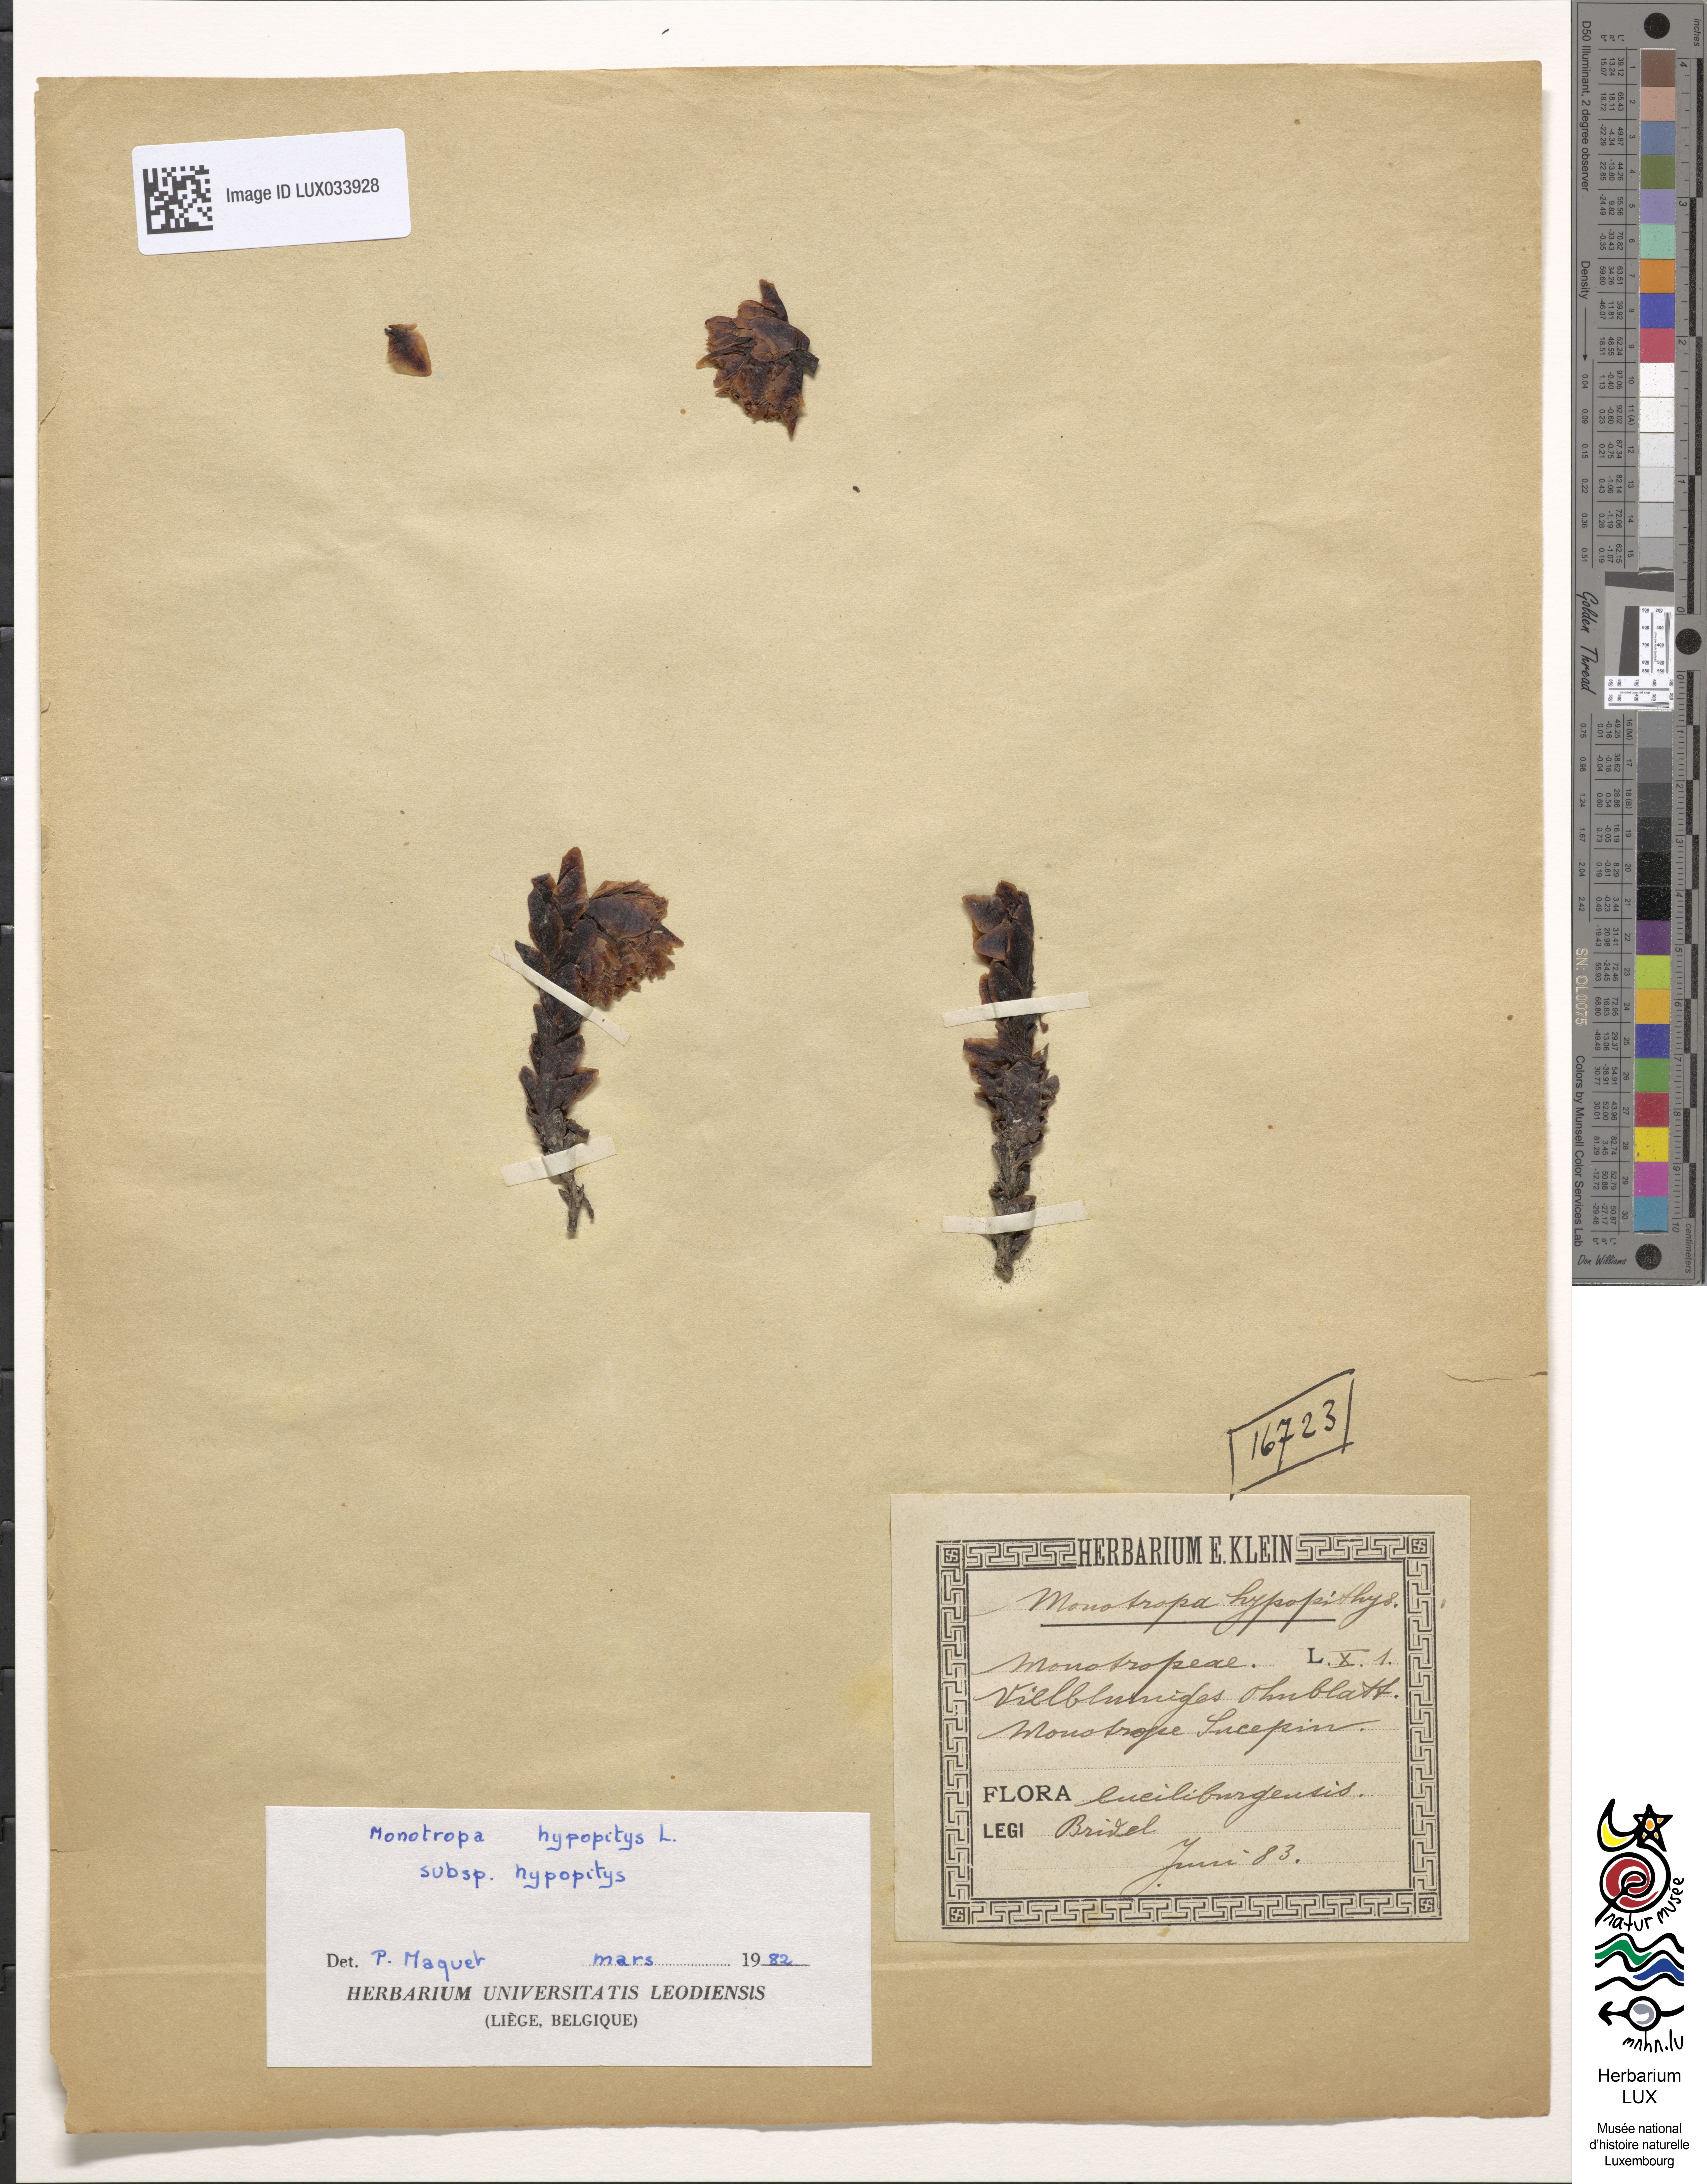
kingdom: Plantae
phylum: Tracheophyta
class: Magnoliopsida
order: Ericales
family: Ericaceae
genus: Hypopitys
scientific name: Hypopitys monotropa
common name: Yellow bird's-nest
